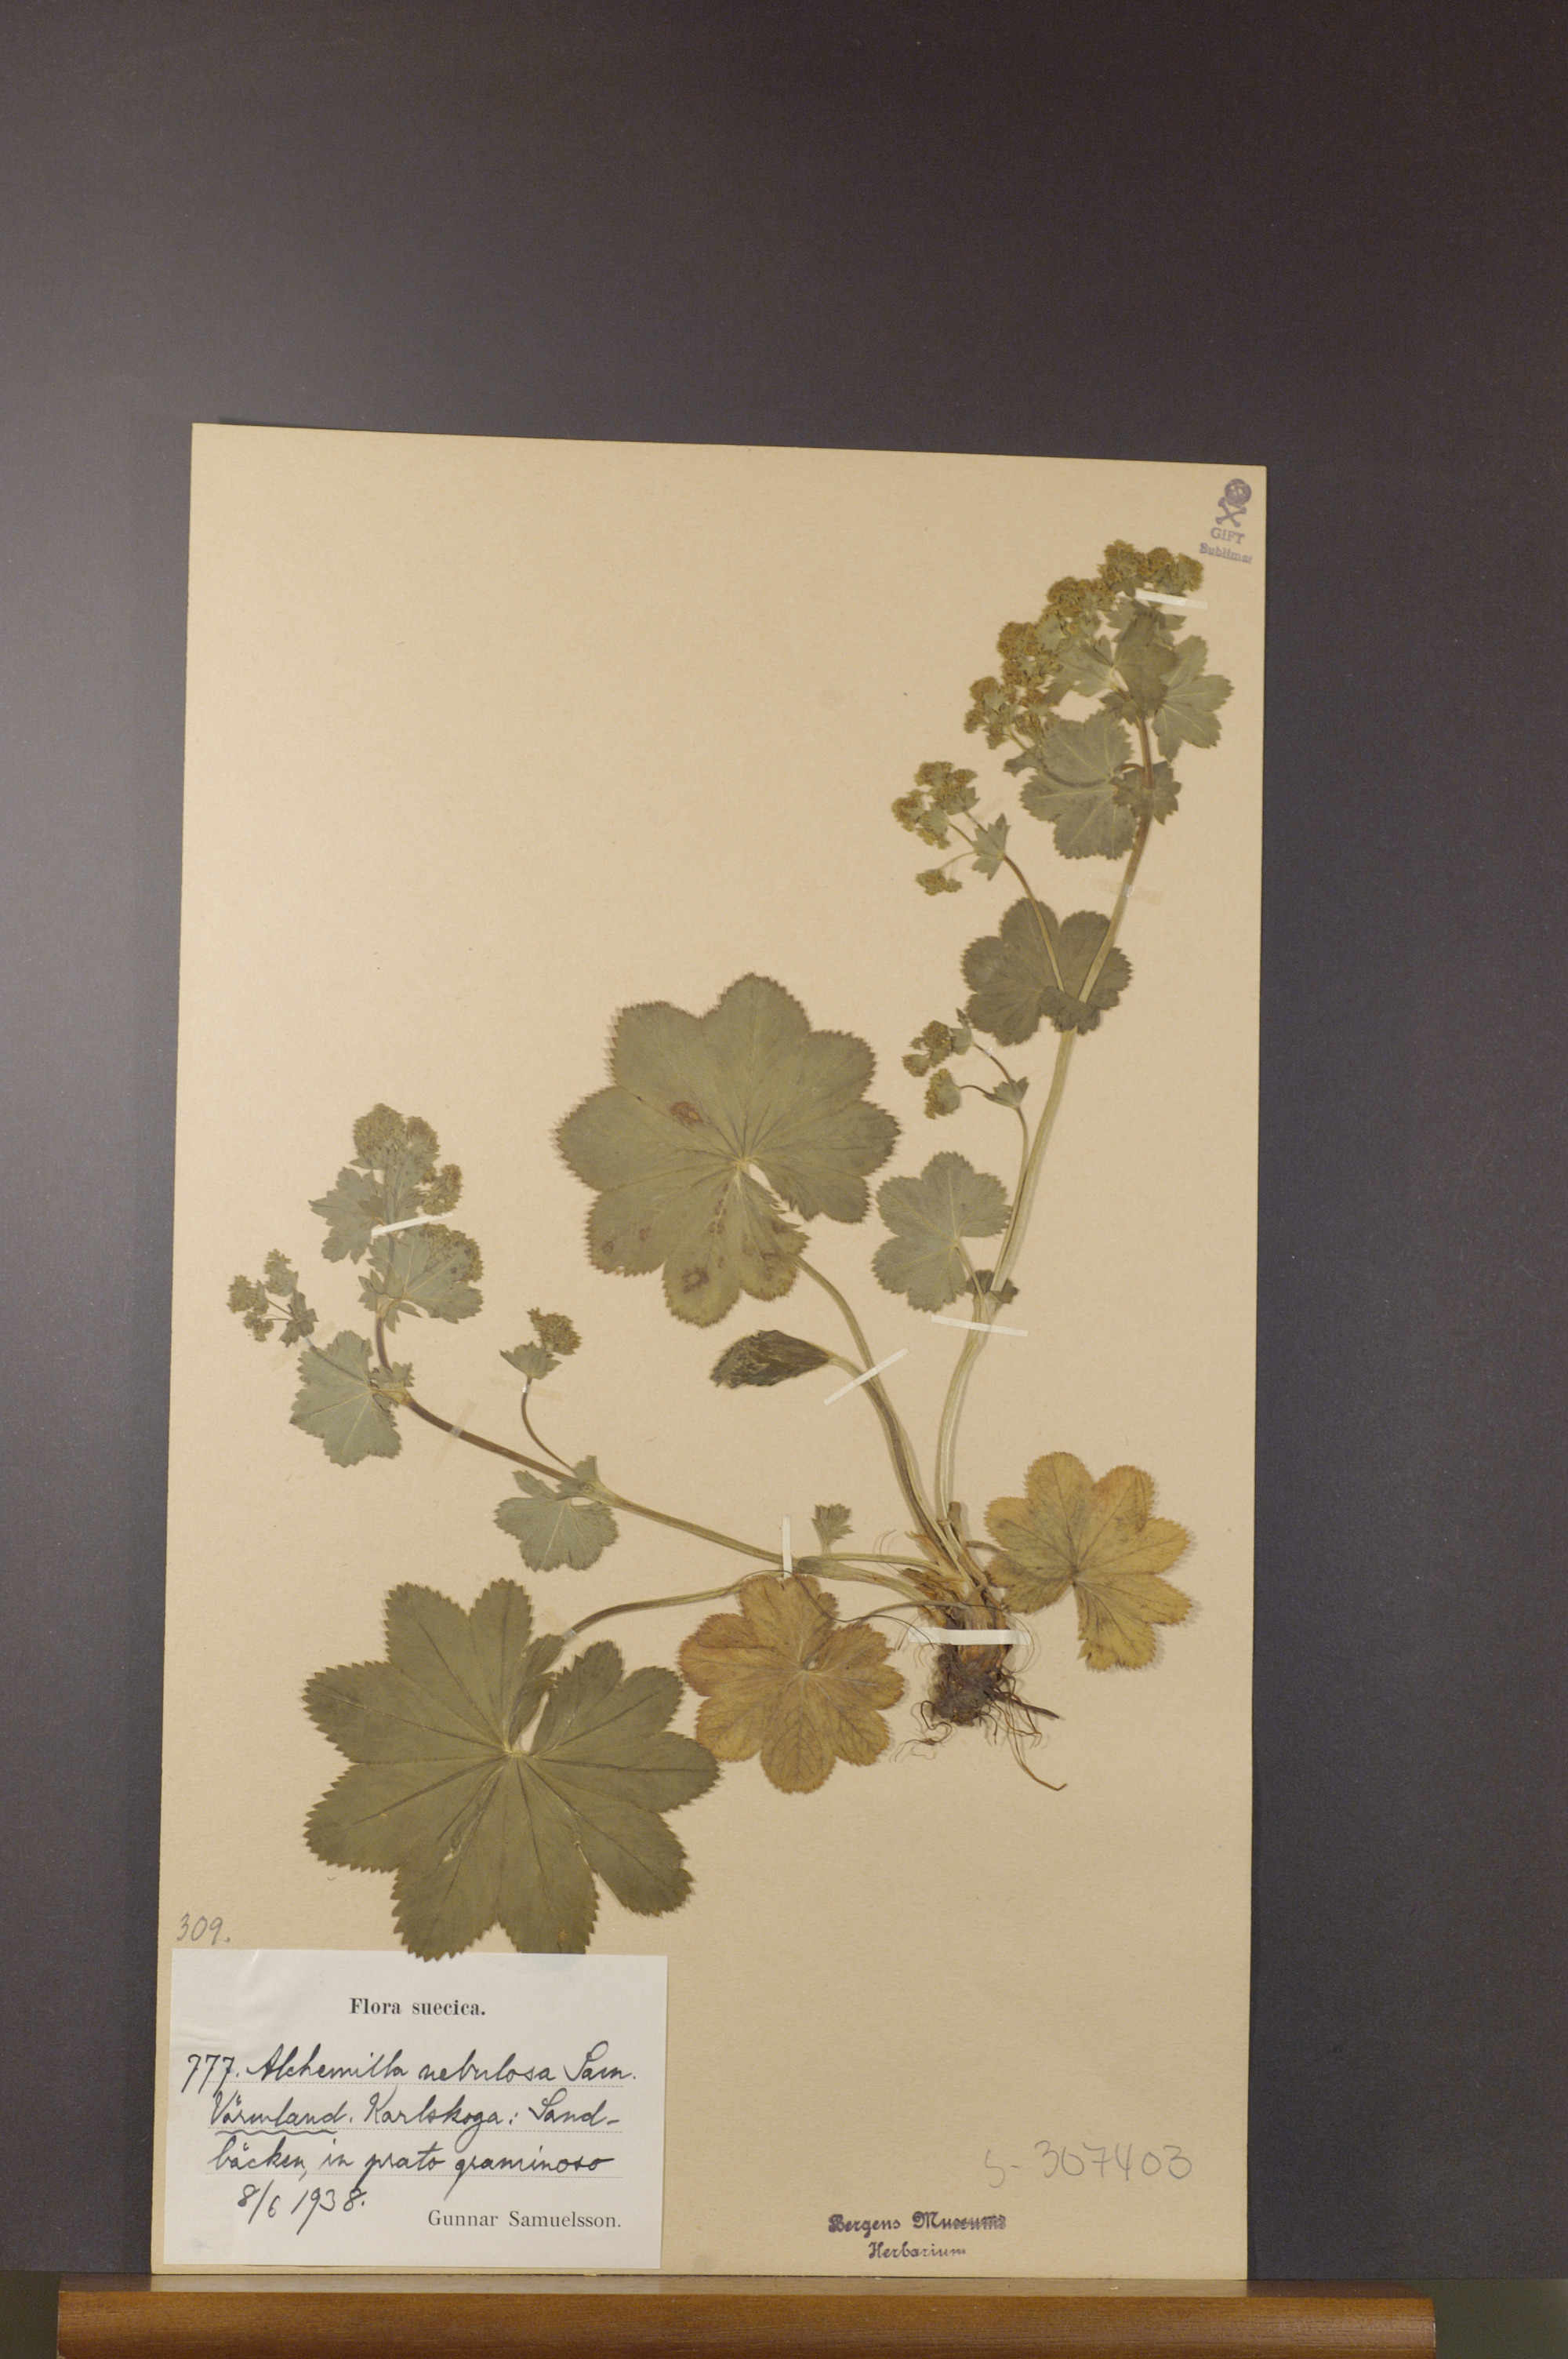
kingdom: Plantae
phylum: Tracheophyta
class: Magnoliopsida
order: Rosales
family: Rosaceae
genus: Alchemilla
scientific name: Alchemilla baltica
